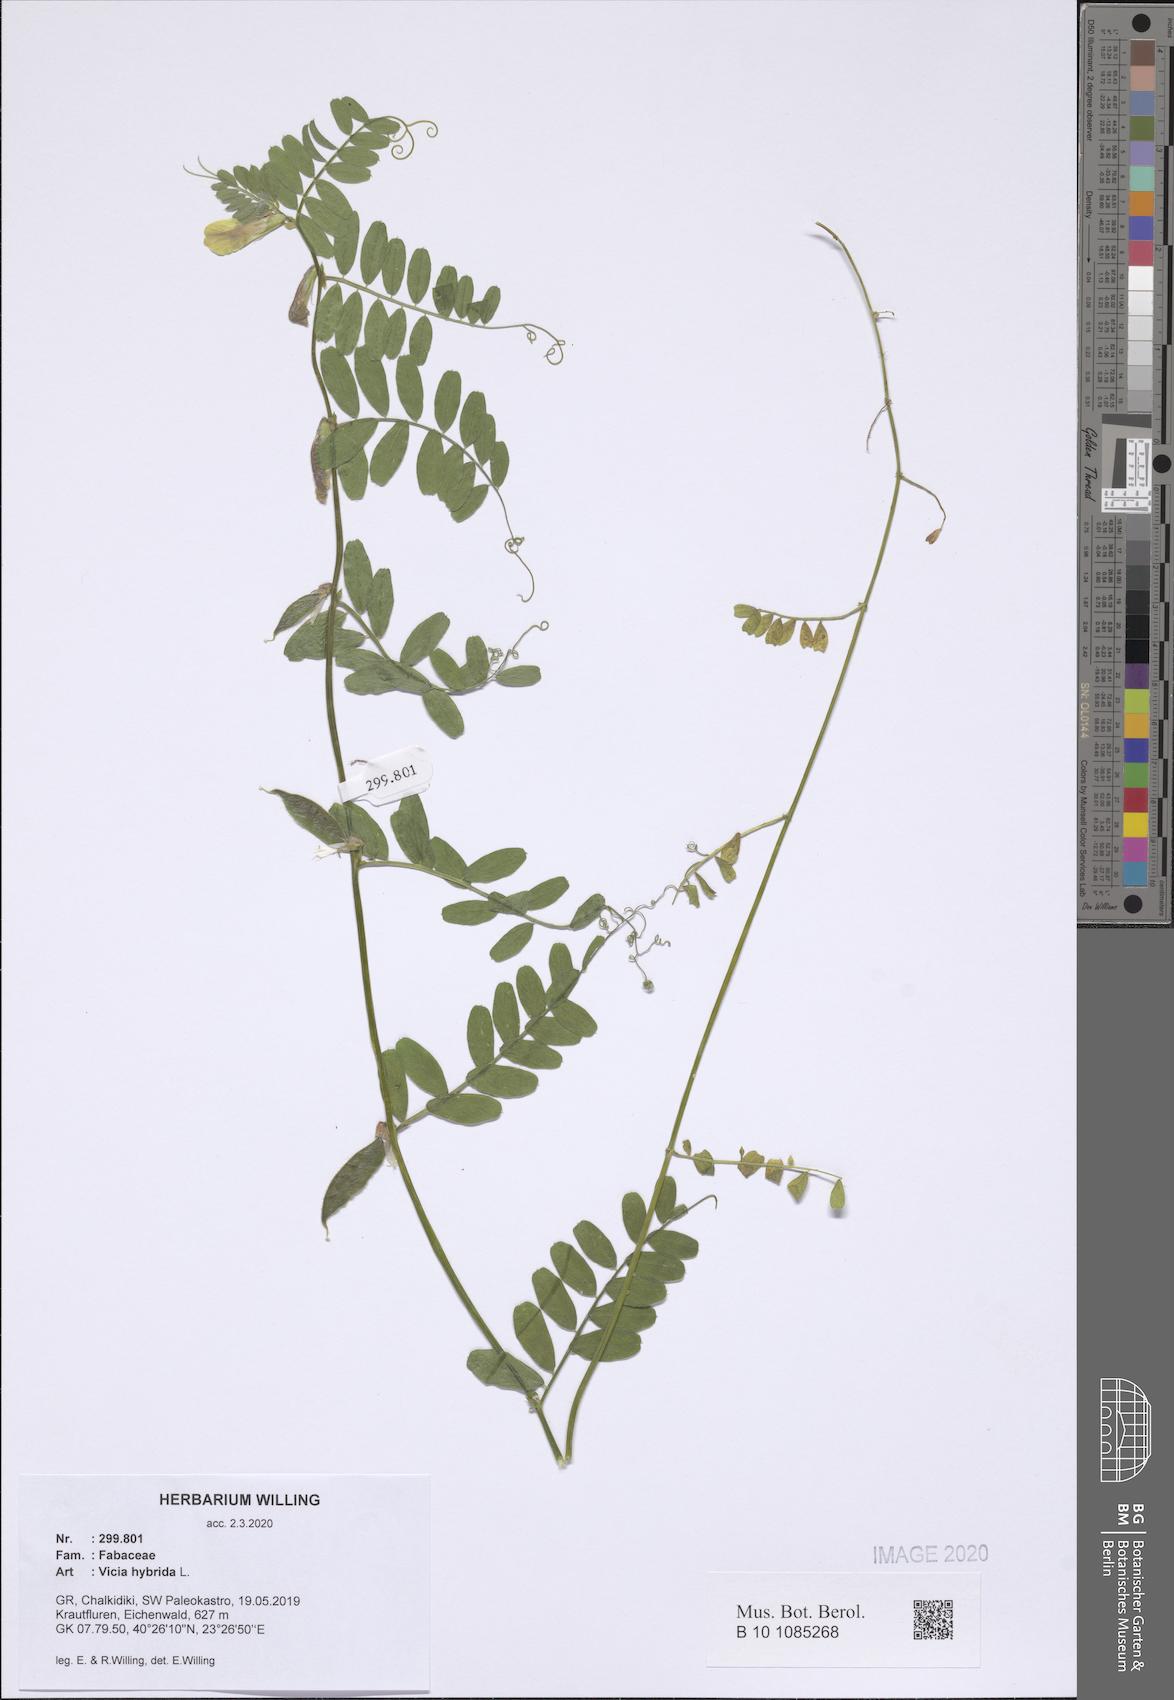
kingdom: Plantae
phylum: Tracheophyta
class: Magnoliopsida
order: Fabales
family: Fabaceae
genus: Vicia
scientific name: Vicia hybrida
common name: Hairy yellow vetch
